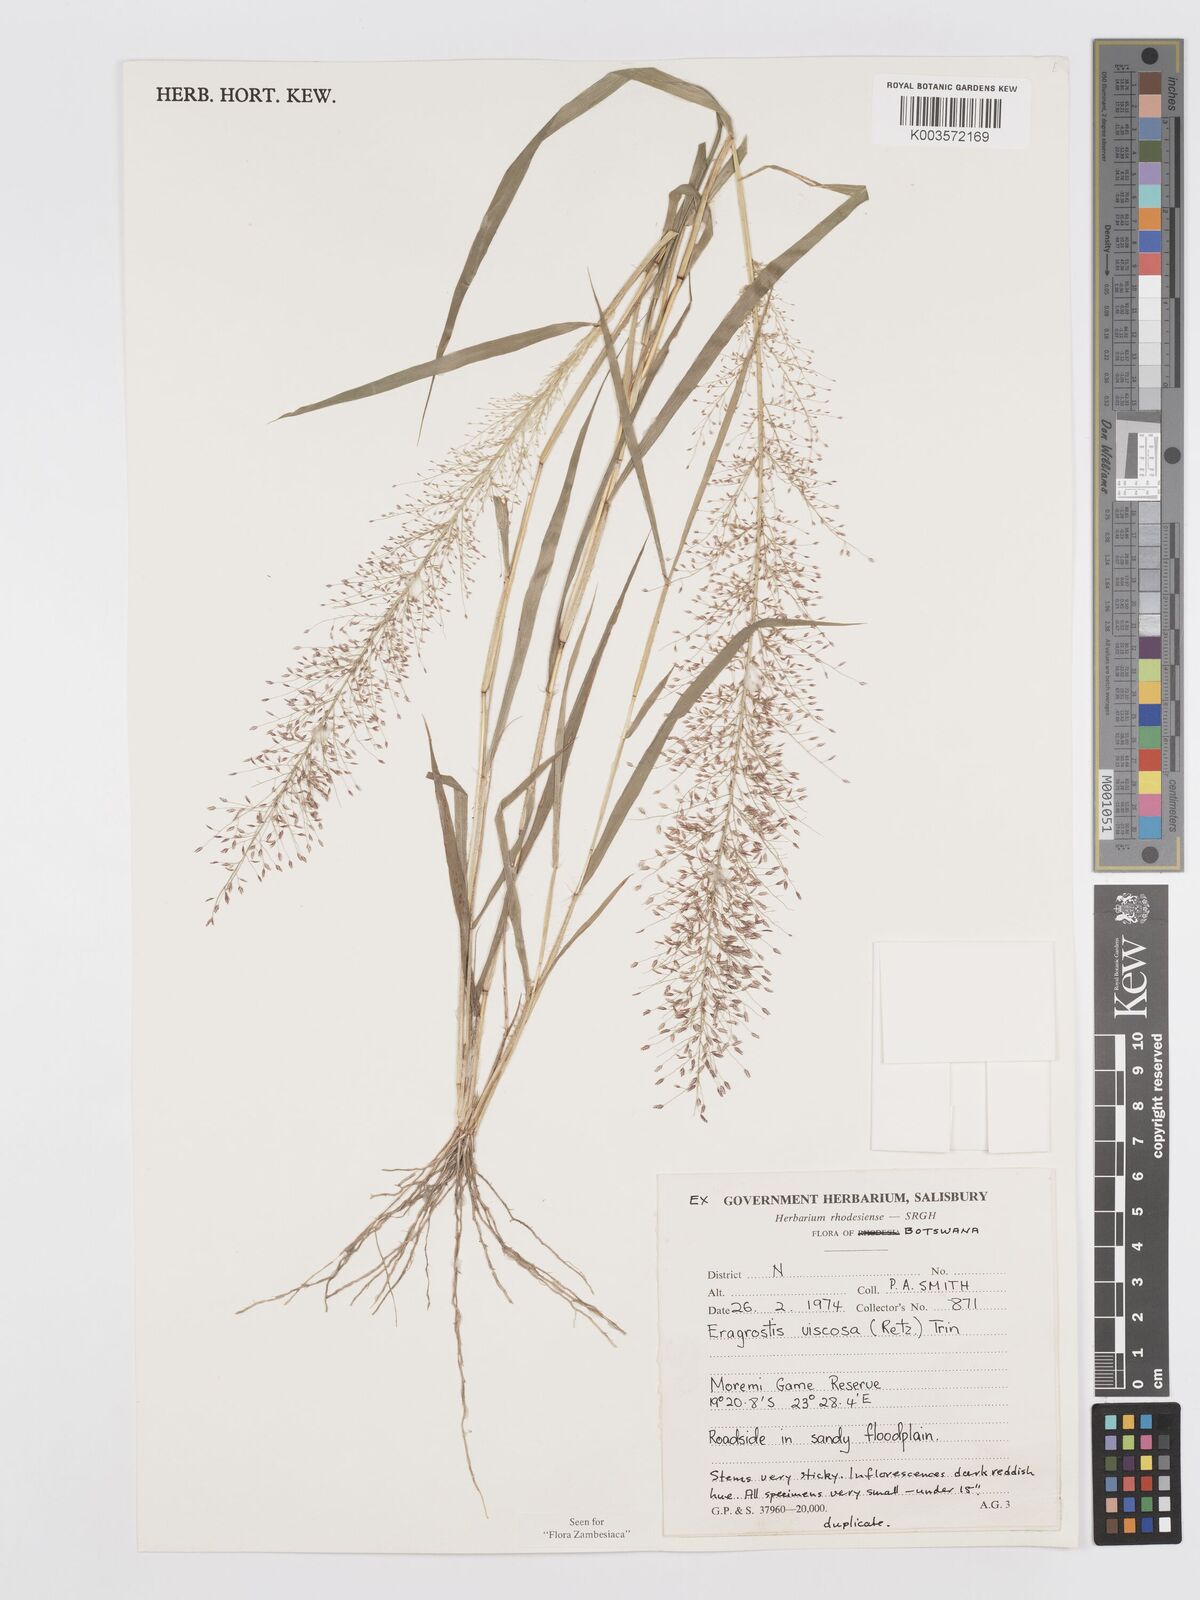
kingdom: Plantae
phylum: Tracheophyta
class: Liliopsida
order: Poales
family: Poaceae
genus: Eragrostis
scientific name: Eragrostis
